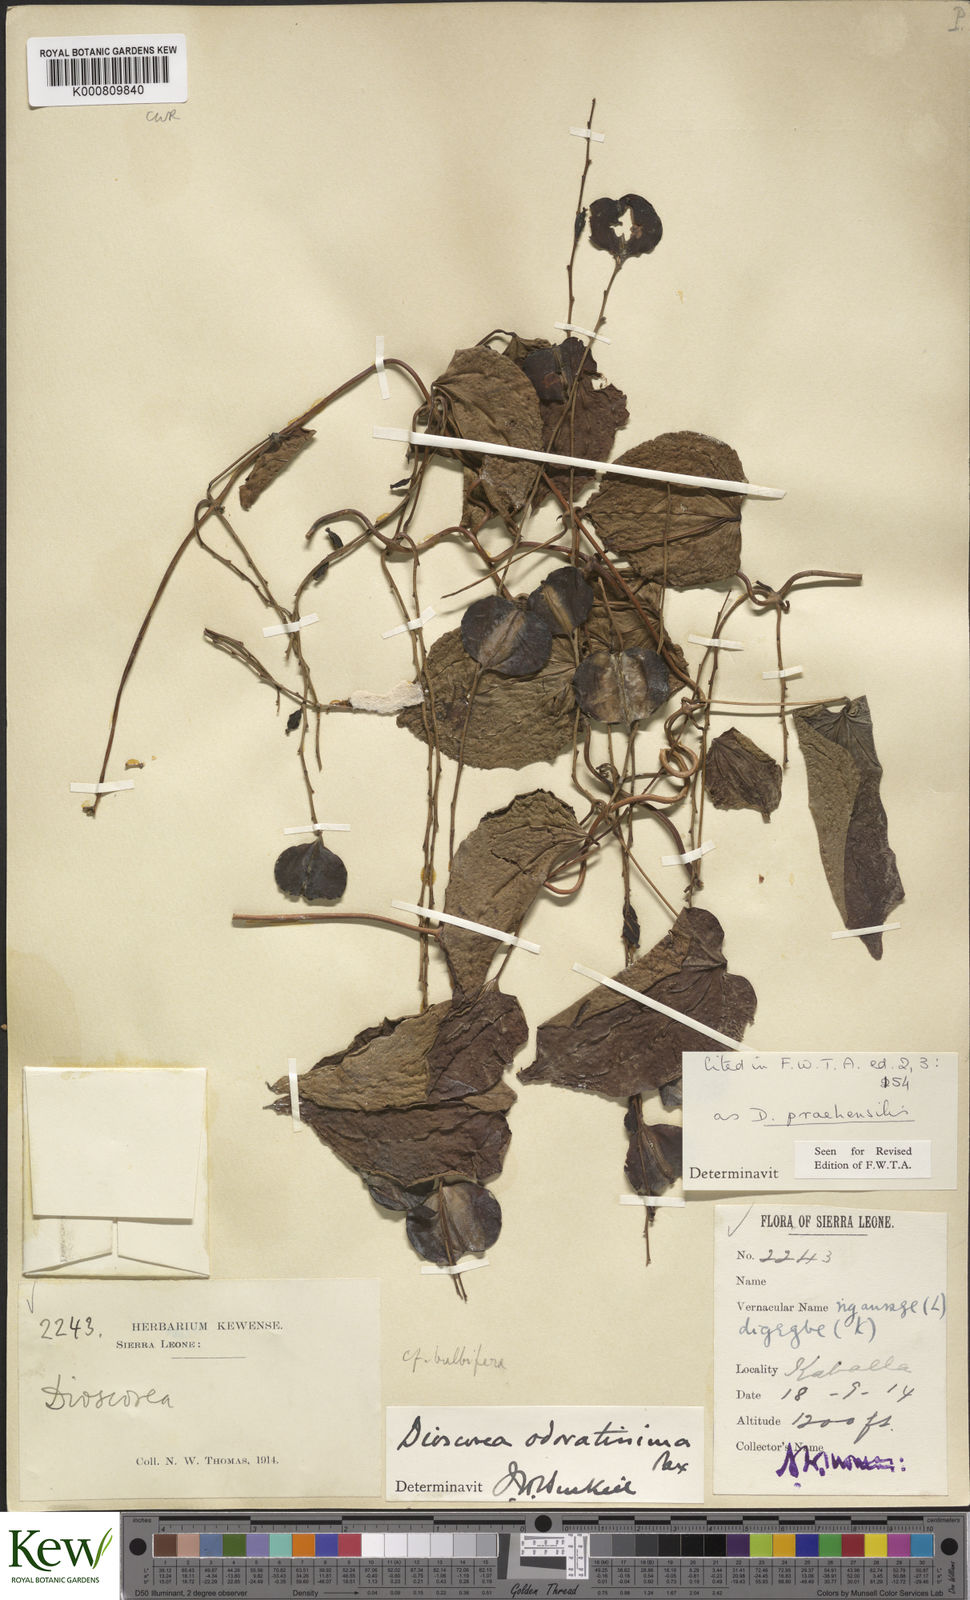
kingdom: Plantae
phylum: Tracheophyta
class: Liliopsida
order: Dioscoreales
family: Dioscoreaceae
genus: Dioscorea
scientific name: Dioscorea praehensilis
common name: Bush yam
